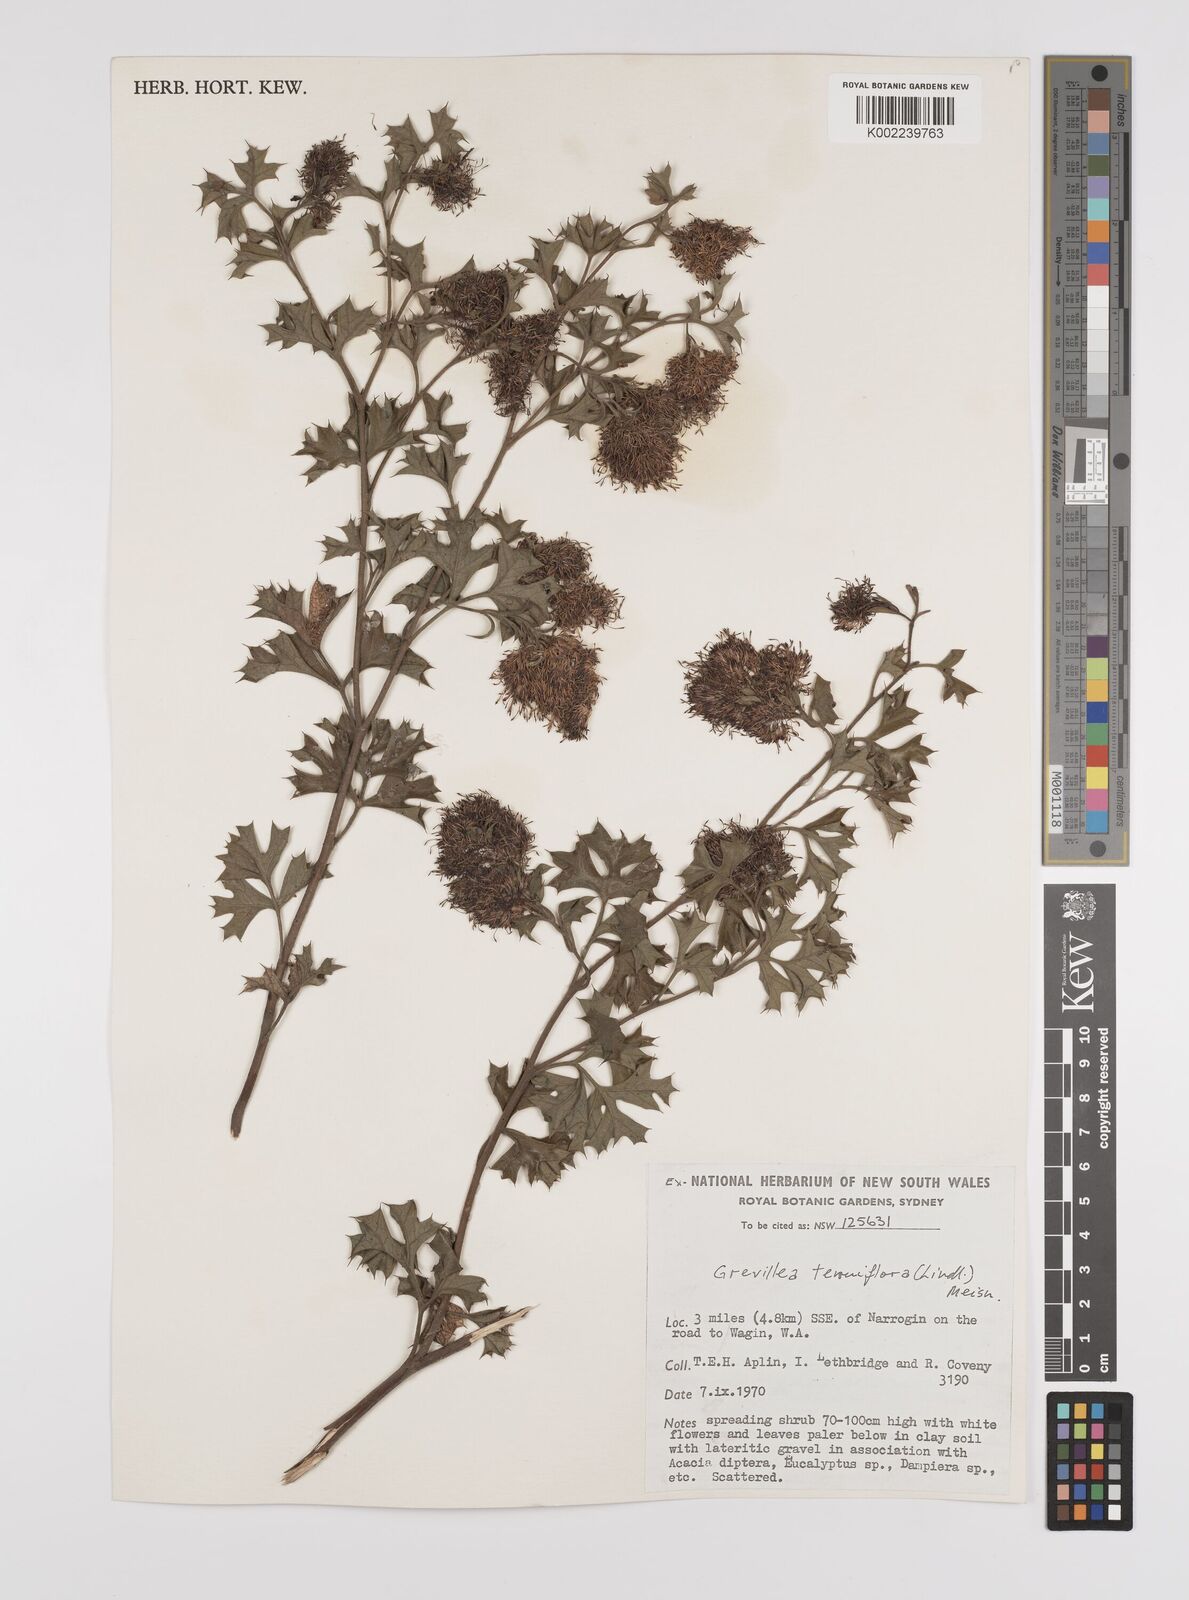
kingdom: Plantae
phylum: Tracheophyta
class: Magnoliopsida
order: Proteales
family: Proteaceae
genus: Grevillea
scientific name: Grevillea tenuiflora
